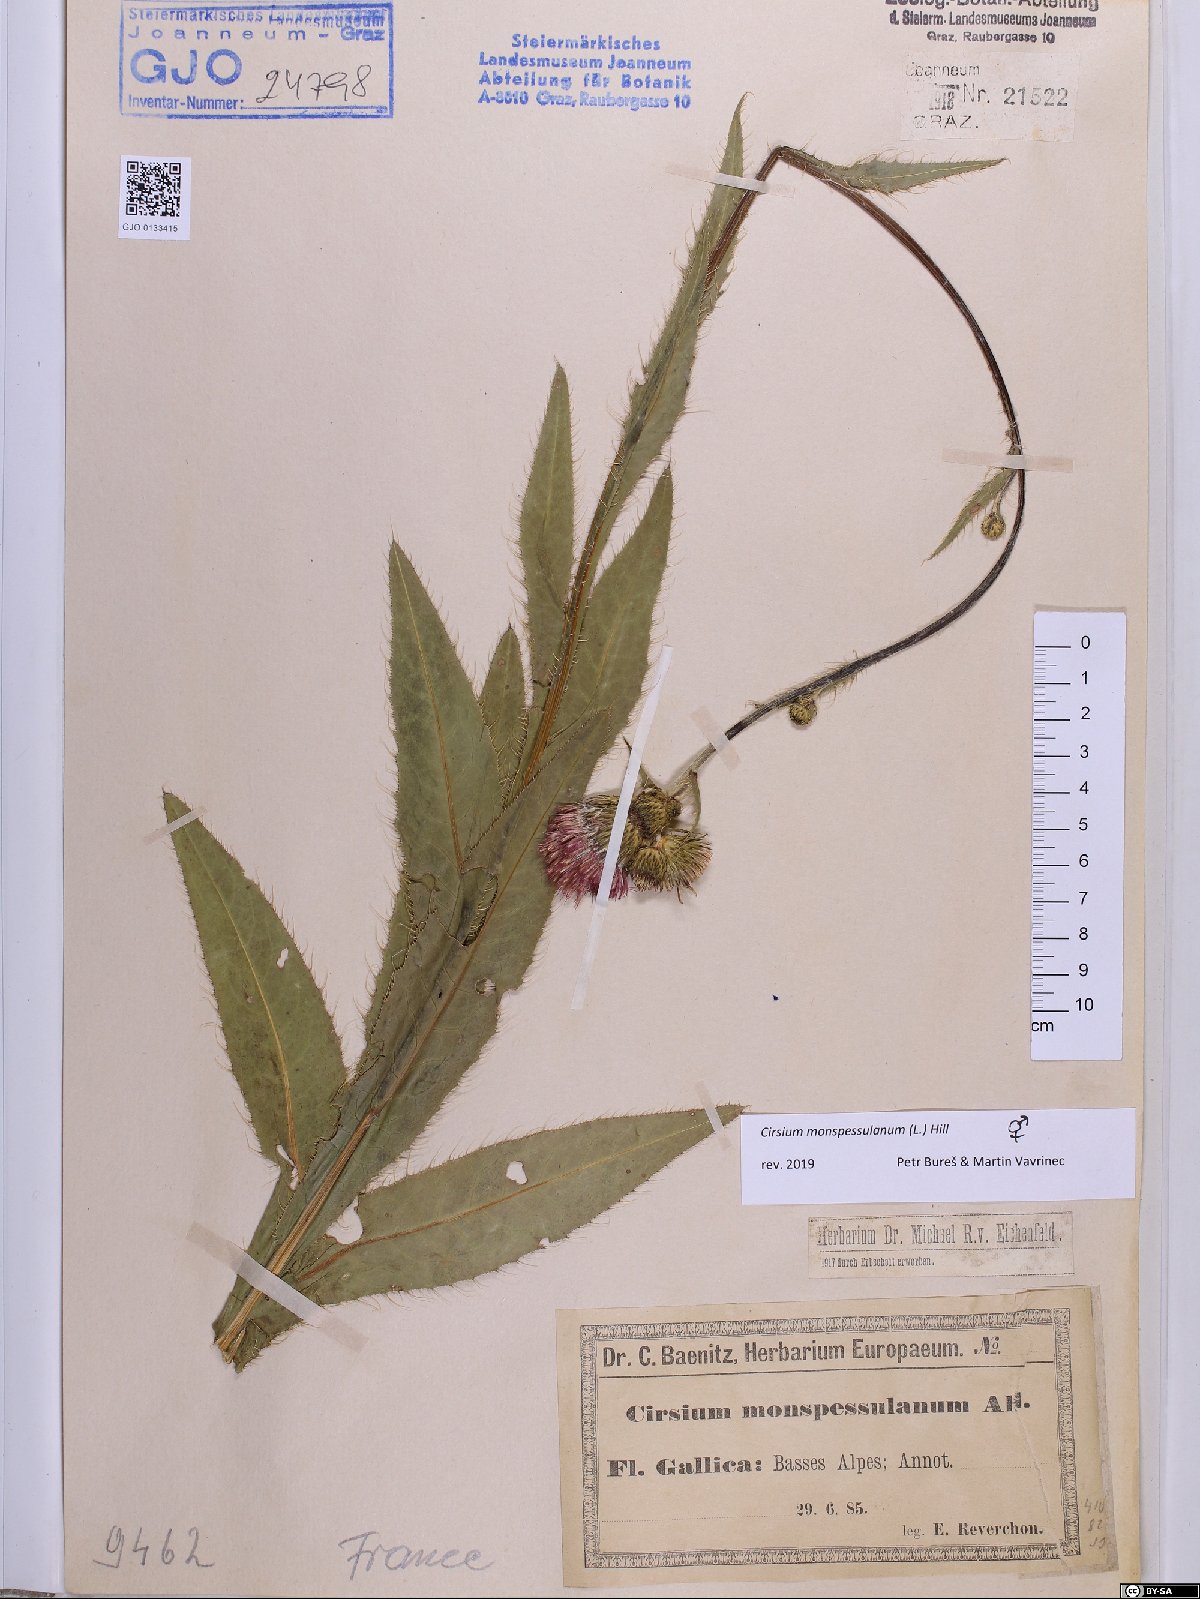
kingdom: Plantae
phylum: Tracheophyta
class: Magnoliopsida
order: Asterales
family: Asteraceae
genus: Cirsium
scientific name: Cirsium monspessulanum
